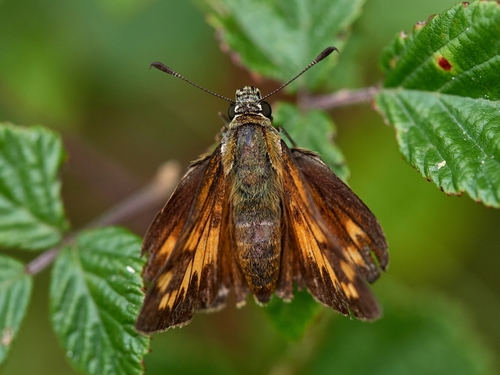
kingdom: Animalia
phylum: Arthropoda
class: Insecta
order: Lepidoptera
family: Hesperiidae
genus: Ochlodes
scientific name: Ochlodes venata
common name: Large skipper
